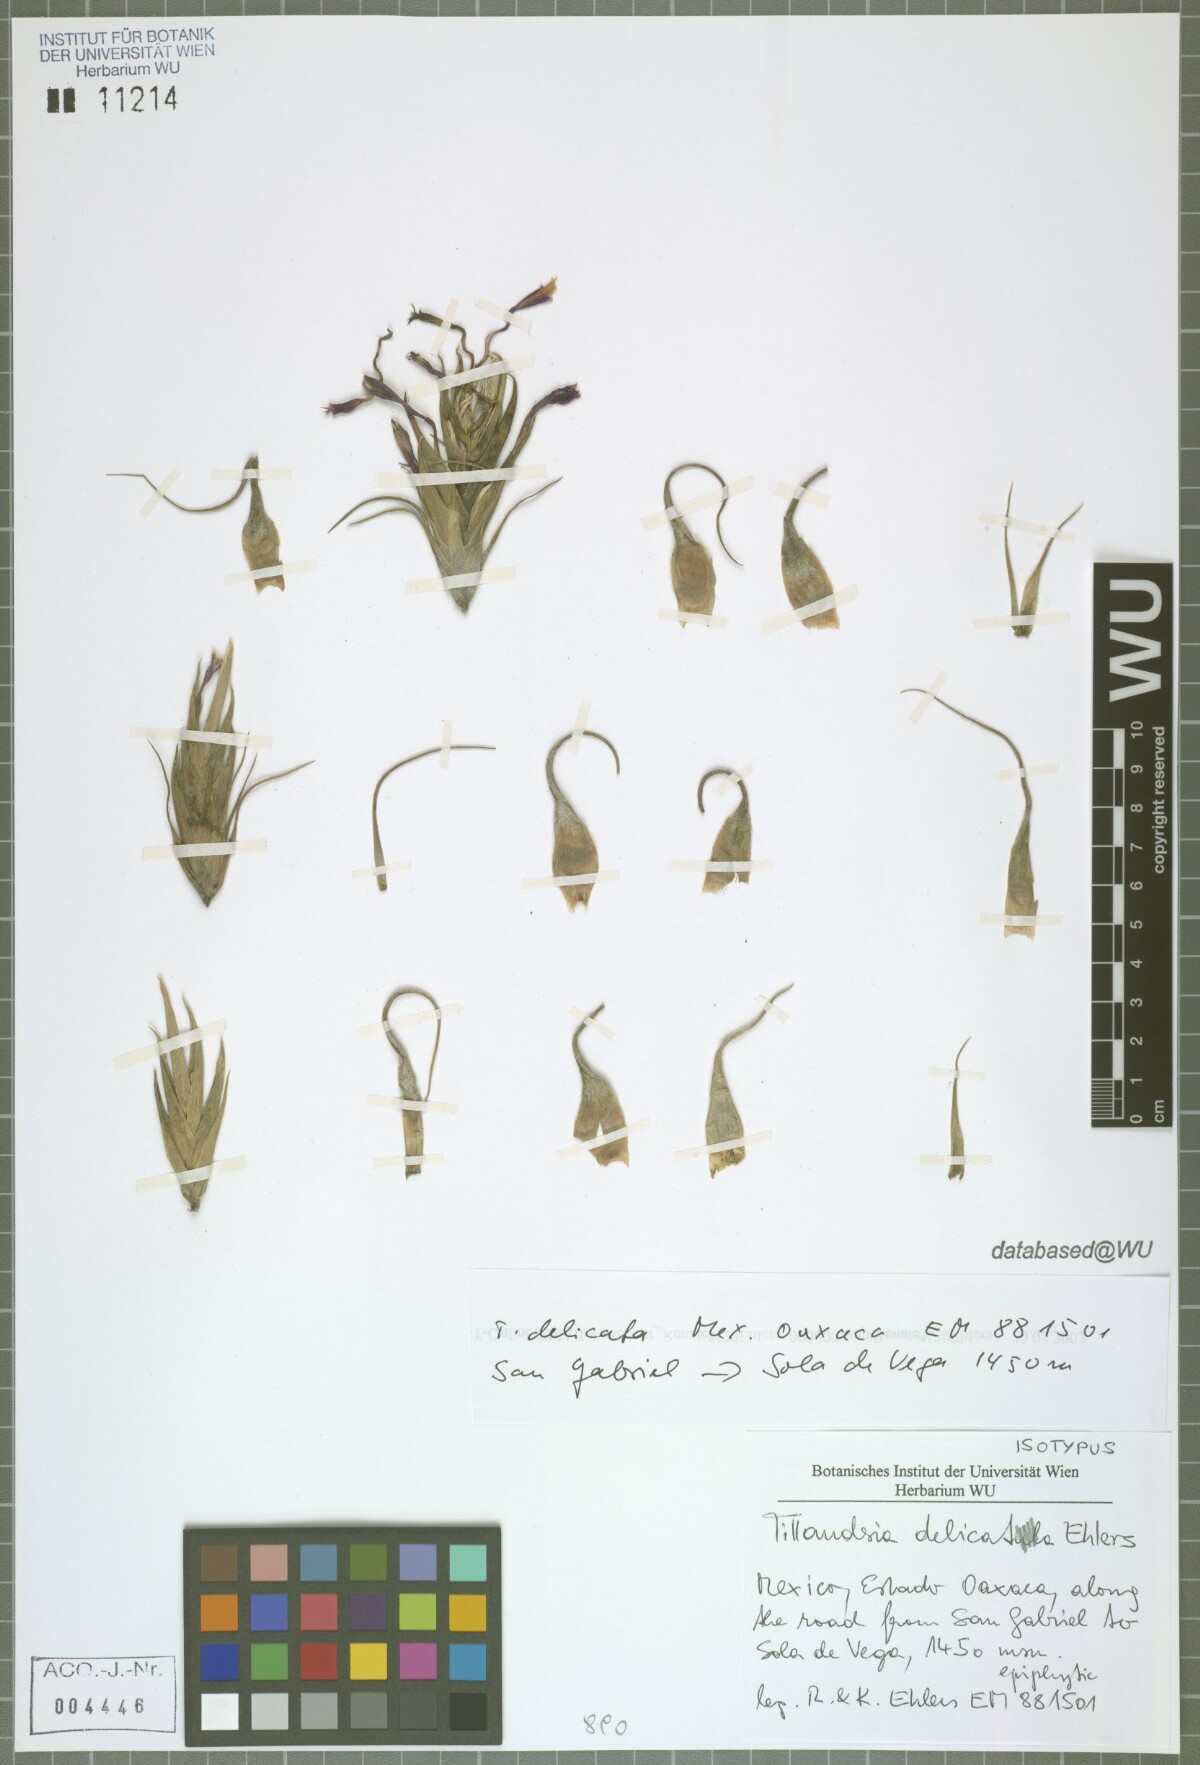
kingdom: Plantae
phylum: Tracheophyta
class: Liliopsida
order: Poales
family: Bromeliaceae
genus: Tillandsia
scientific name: Tillandsia delicata
